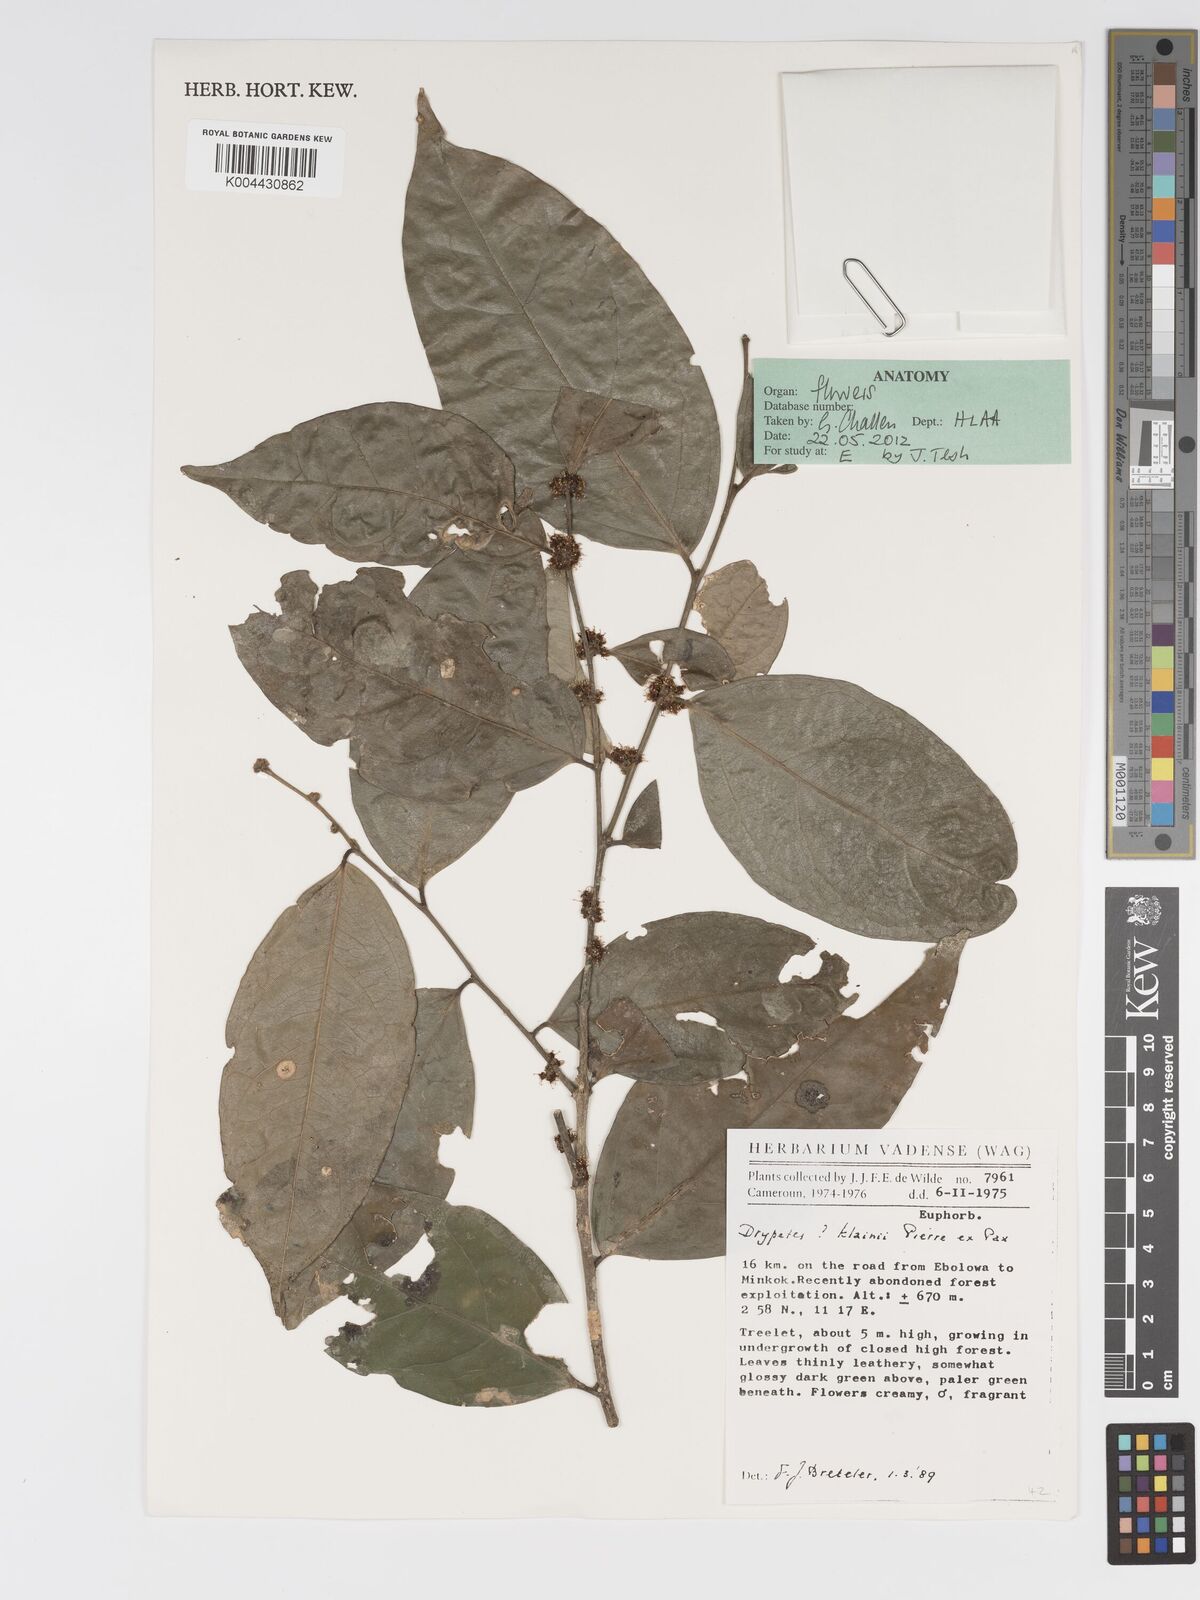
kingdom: Plantae
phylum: Tracheophyta
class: Magnoliopsida
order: Malpighiales
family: Putranjivaceae
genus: Drypetes
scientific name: Drypetes
